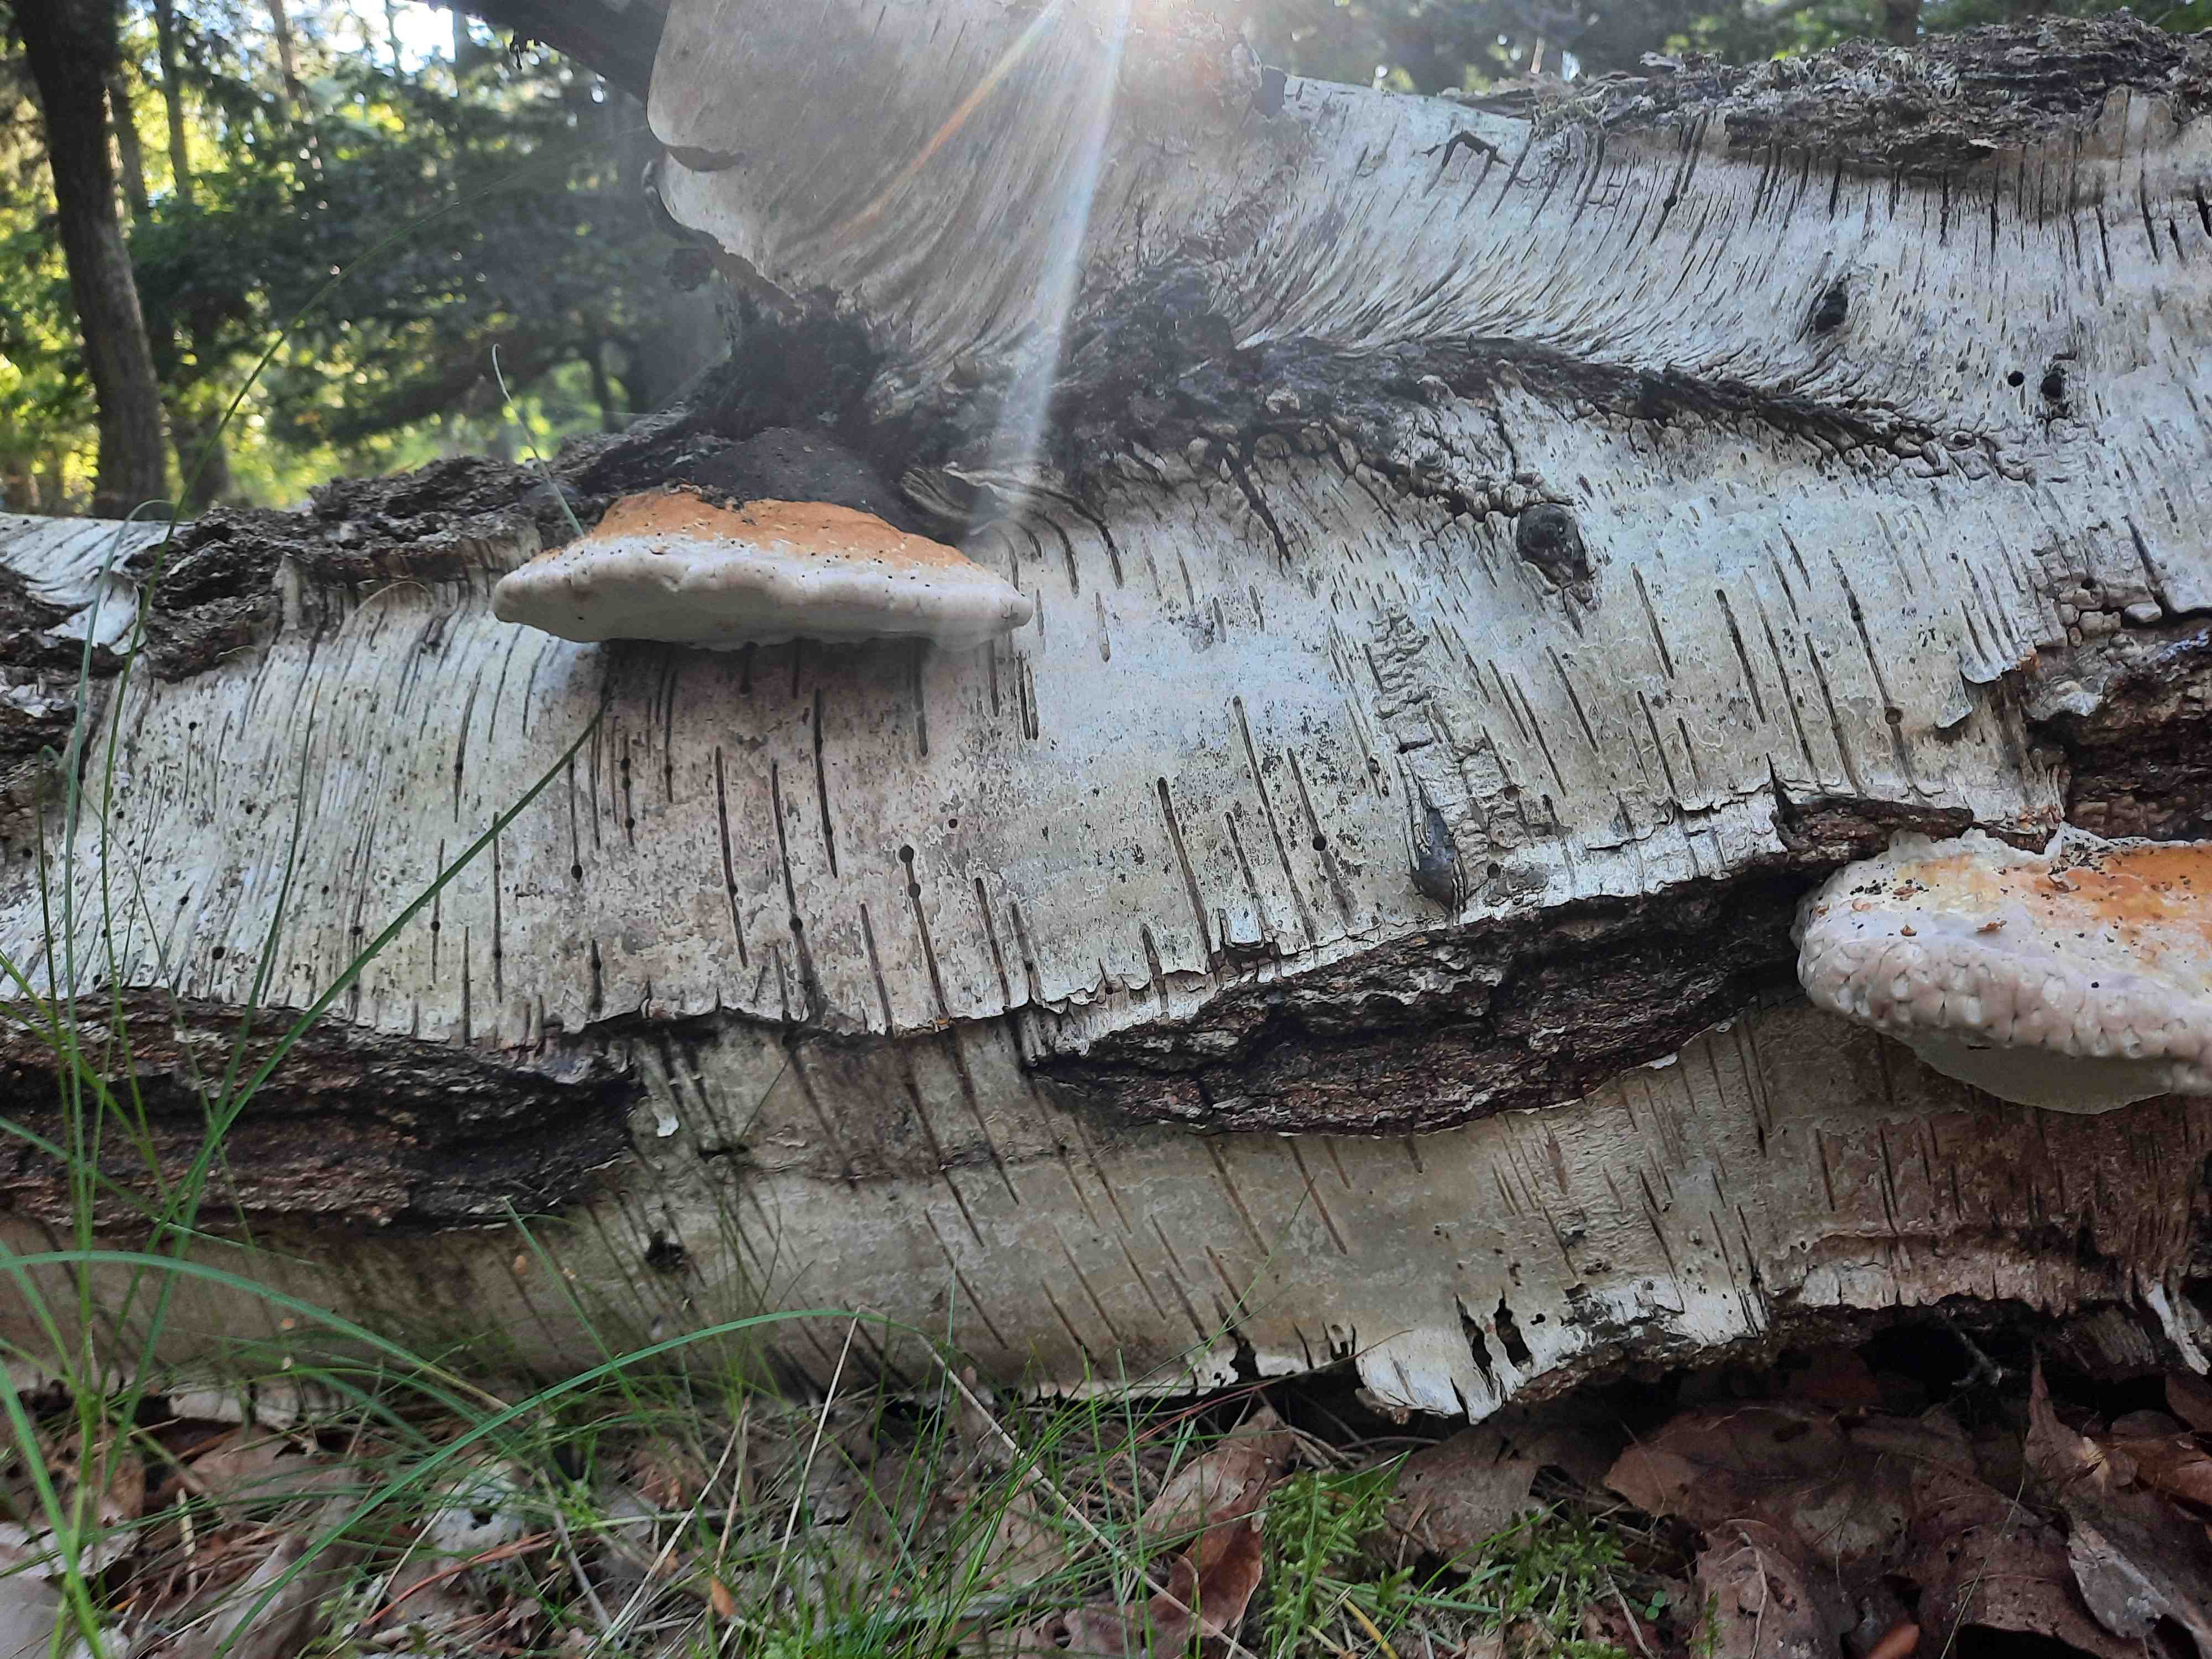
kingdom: Fungi
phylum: Basidiomycota
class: Agaricomycetes
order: Polyporales
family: Fomitopsidaceae
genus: Fomitopsis
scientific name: Fomitopsis pinicola
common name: randbæltet hovporesvamp
